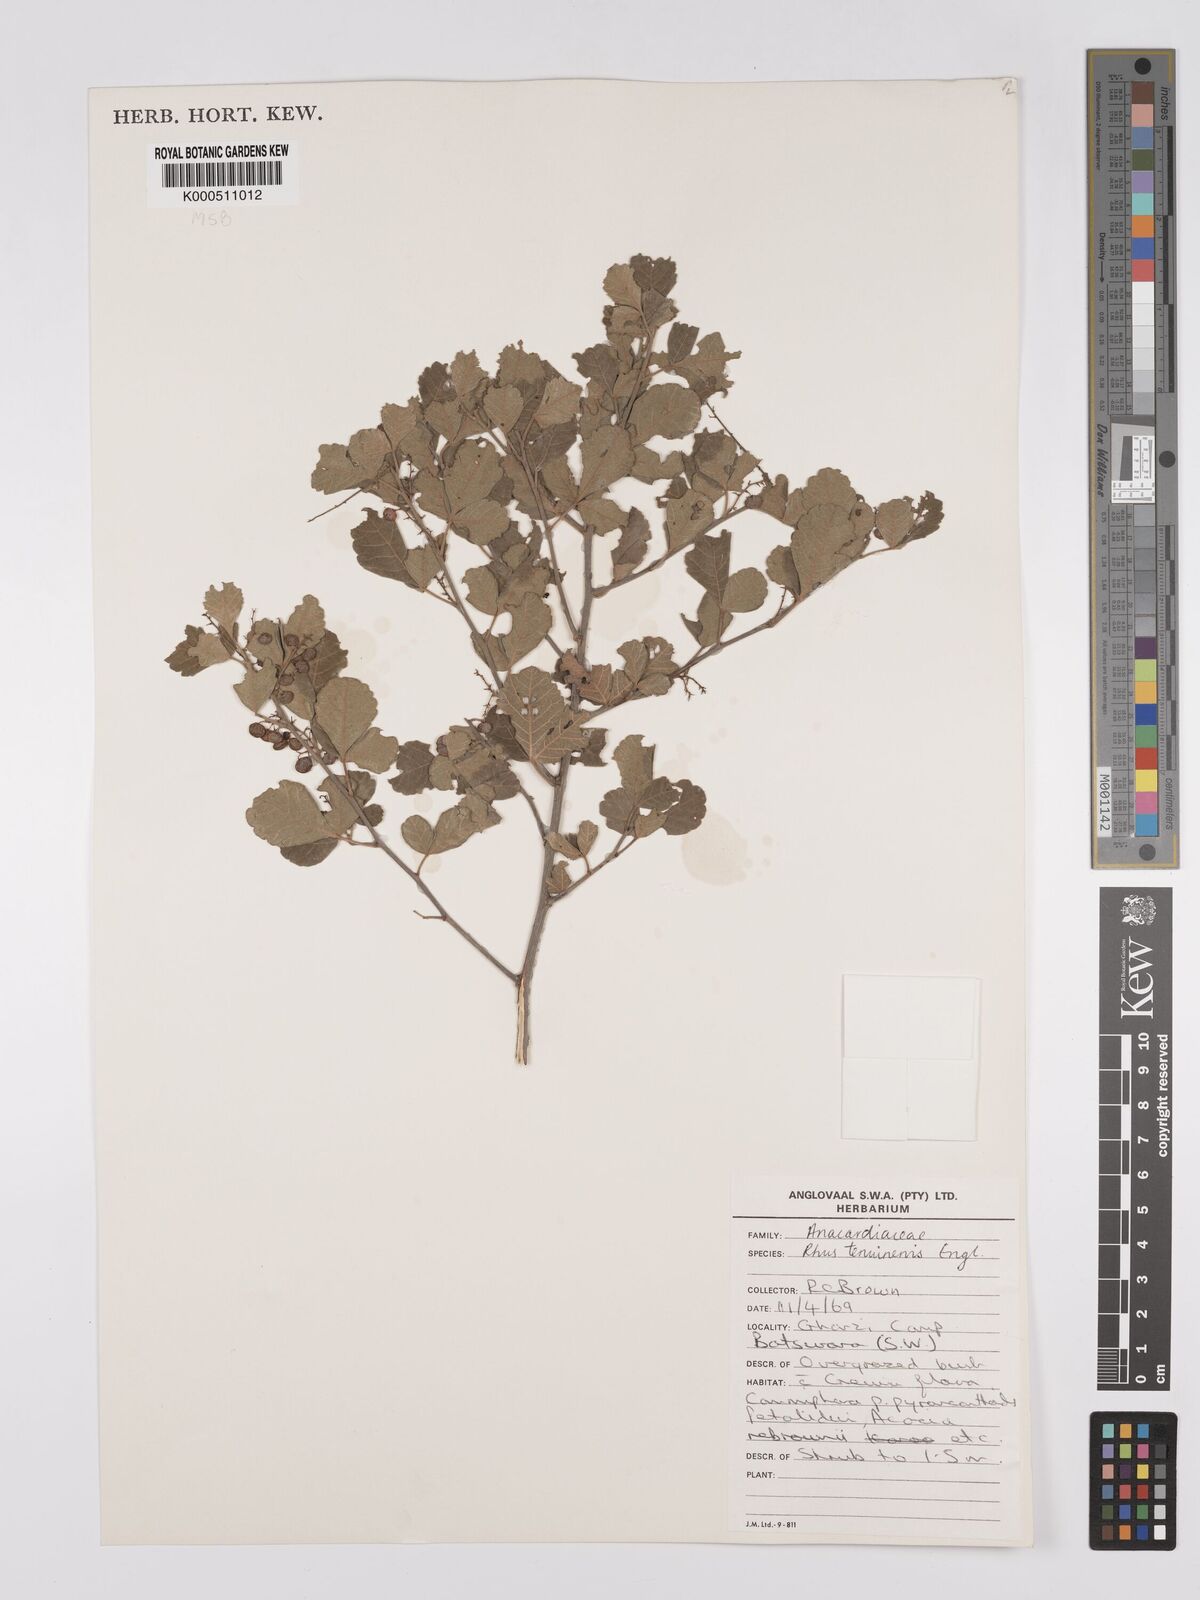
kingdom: Plantae
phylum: Tracheophyta
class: Magnoliopsida
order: Sapindales
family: Anacardiaceae
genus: Searsia
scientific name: Searsia tenuinervis
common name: Hyaena taaibos
